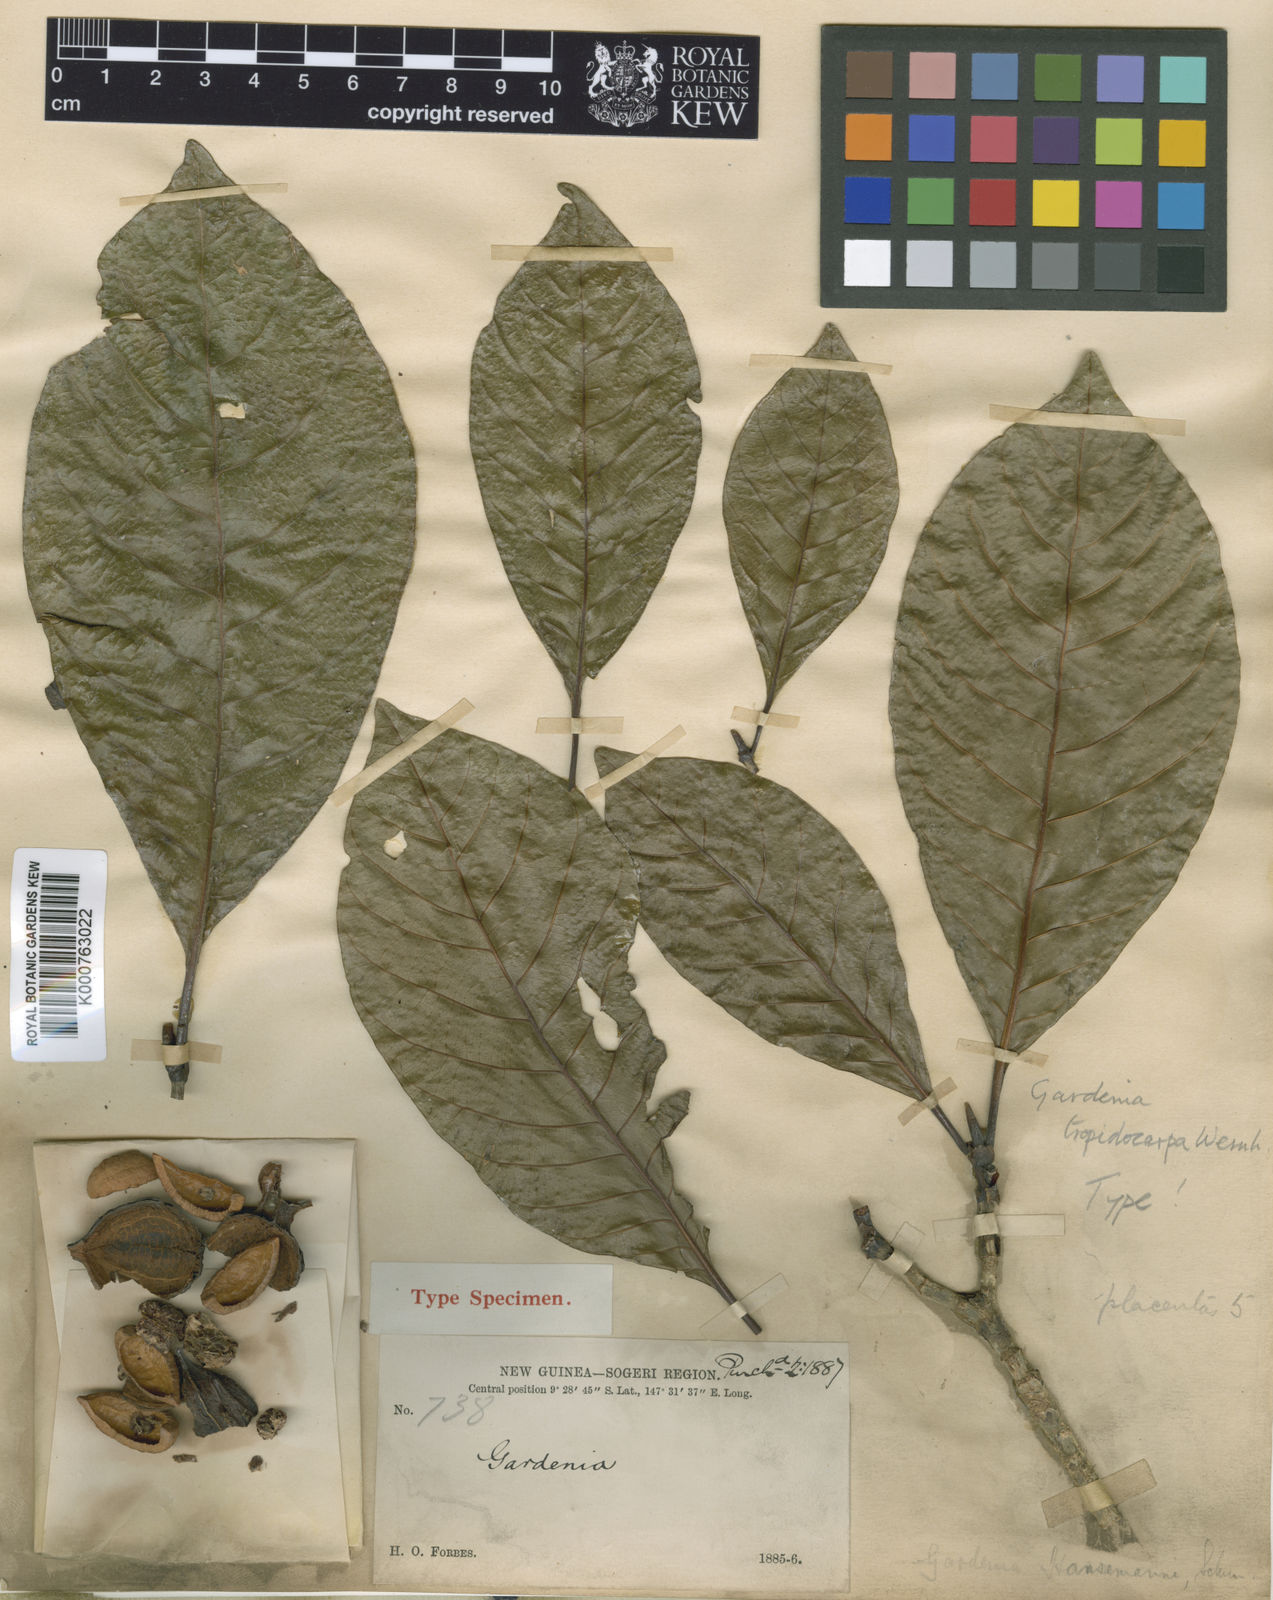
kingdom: Plantae
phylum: Tracheophyta
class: Magnoliopsida
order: Gentianales
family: Rubiaceae
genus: Gardenia
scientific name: Gardenia hansemannii
